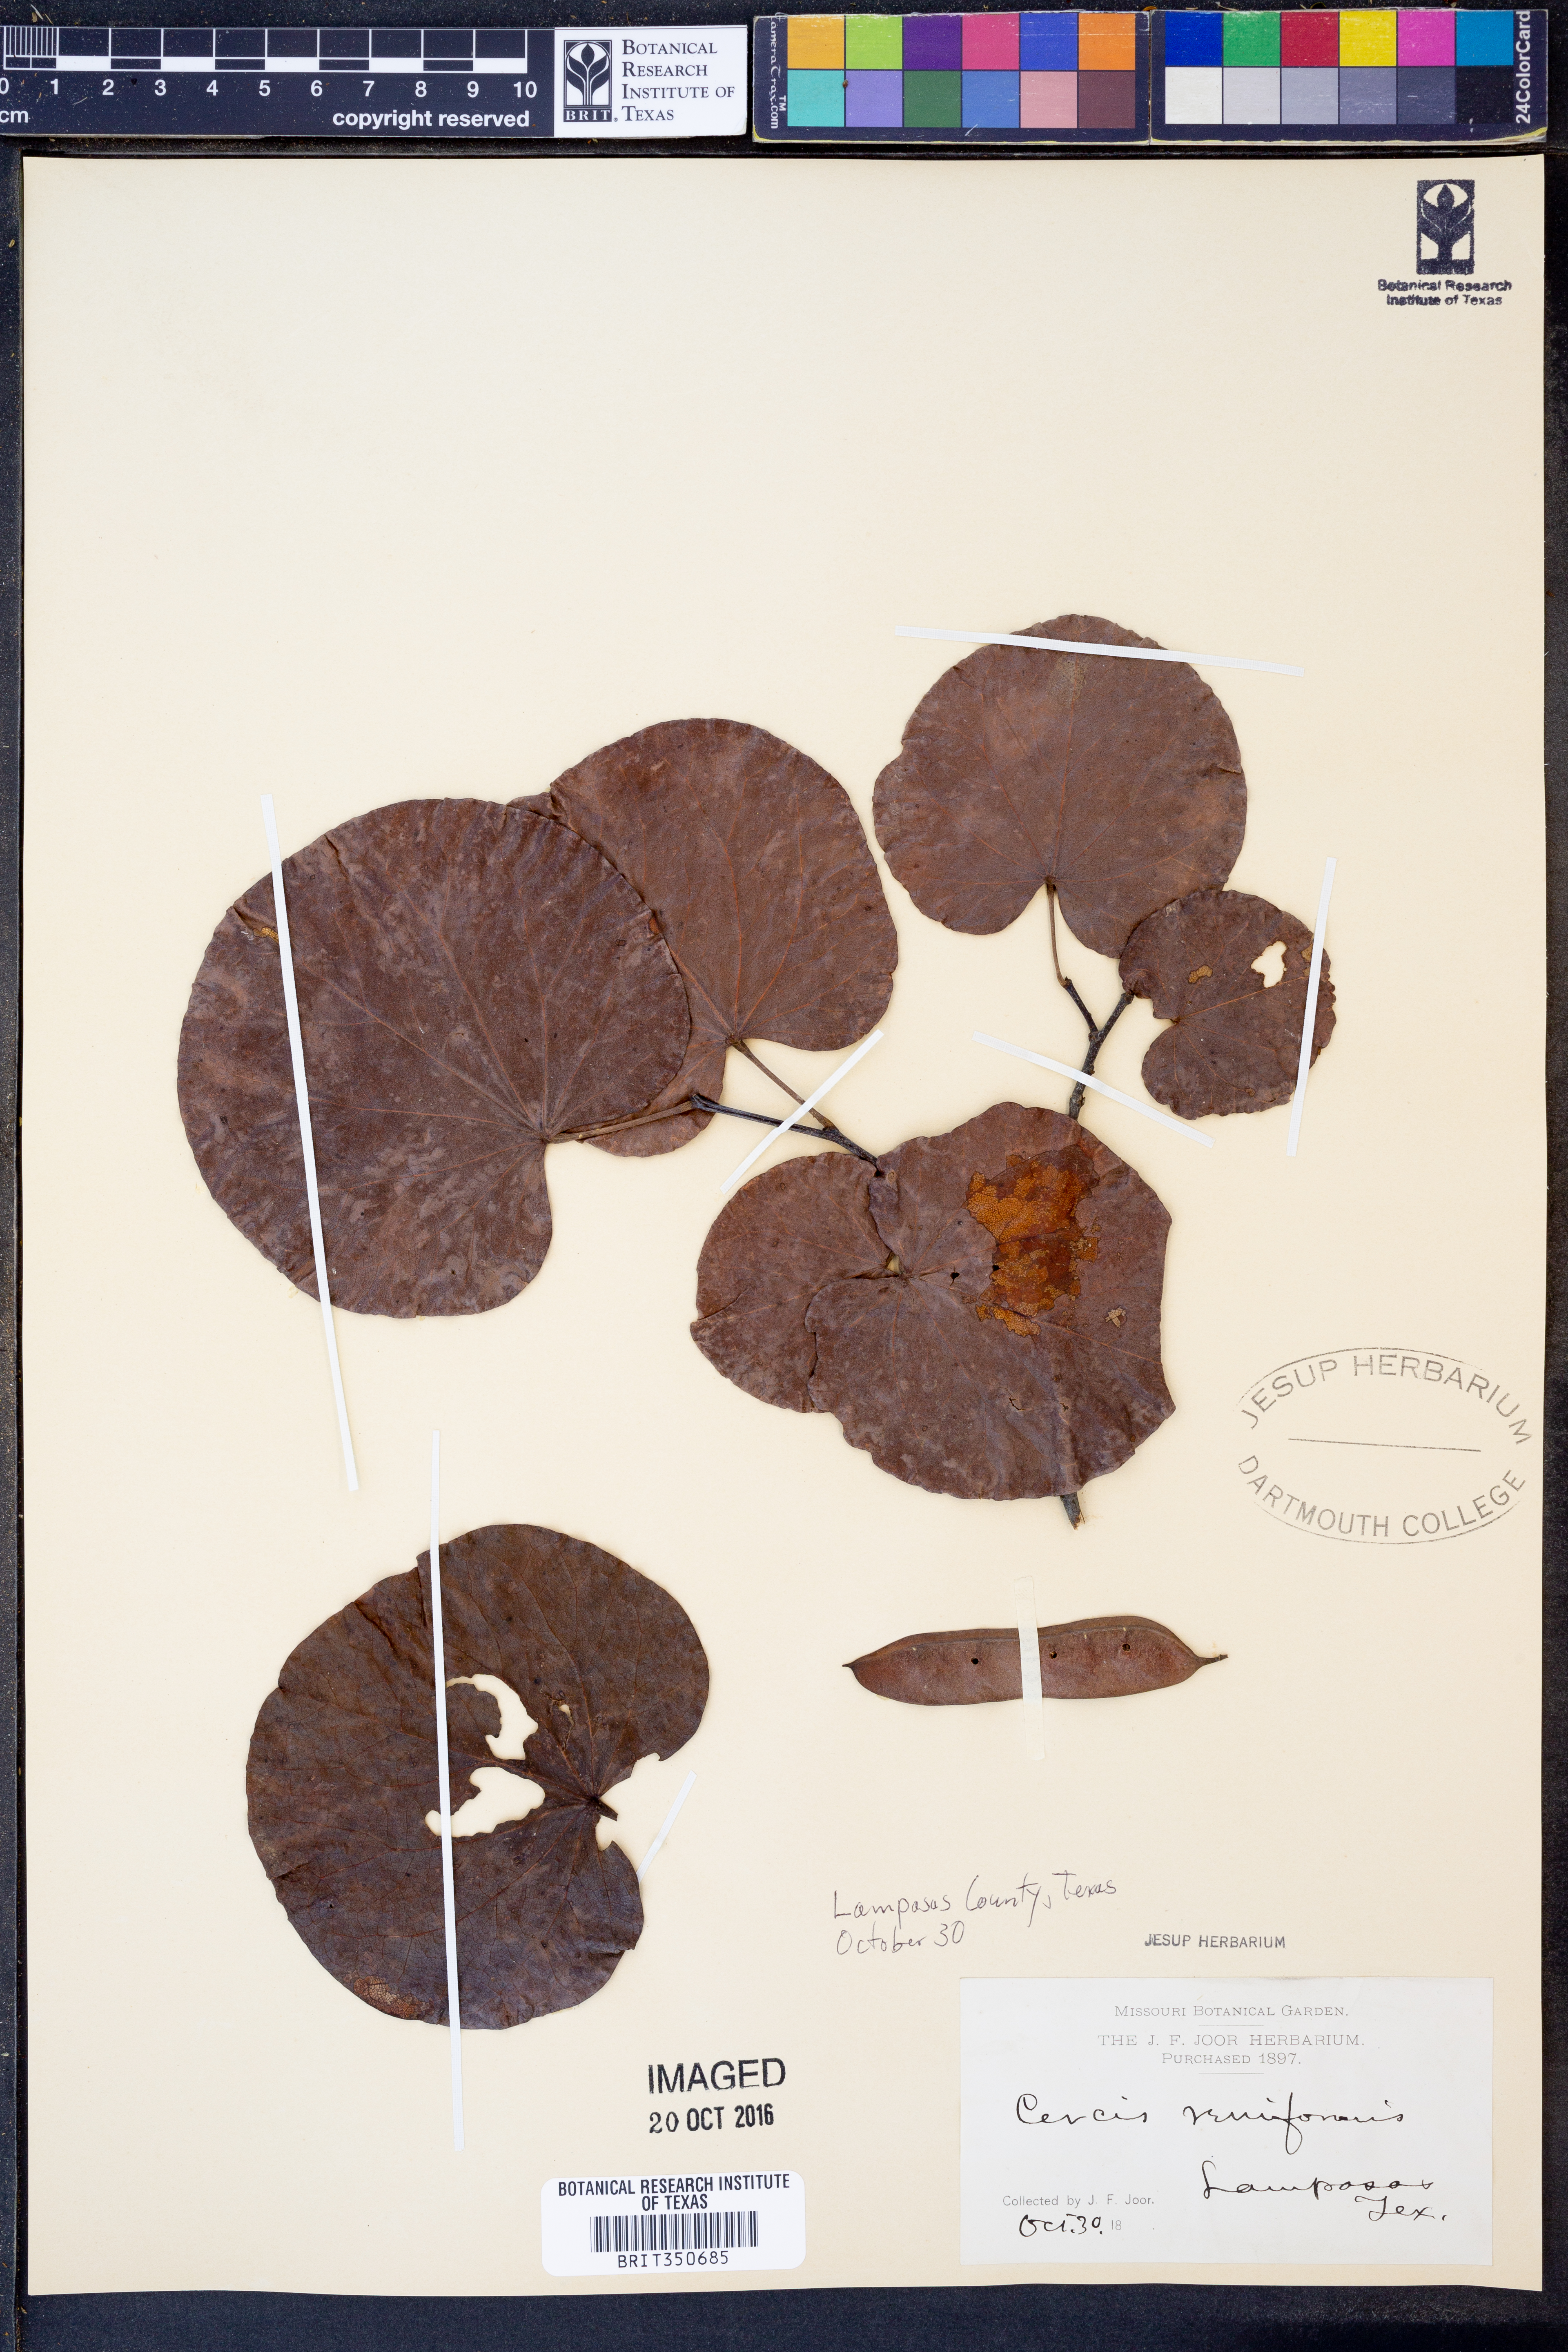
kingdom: Plantae
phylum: Tracheophyta
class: Magnoliopsida
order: Fabales
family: Fabaceae
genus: Cercis
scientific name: Cercis canadensis
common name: Eastern redbud
